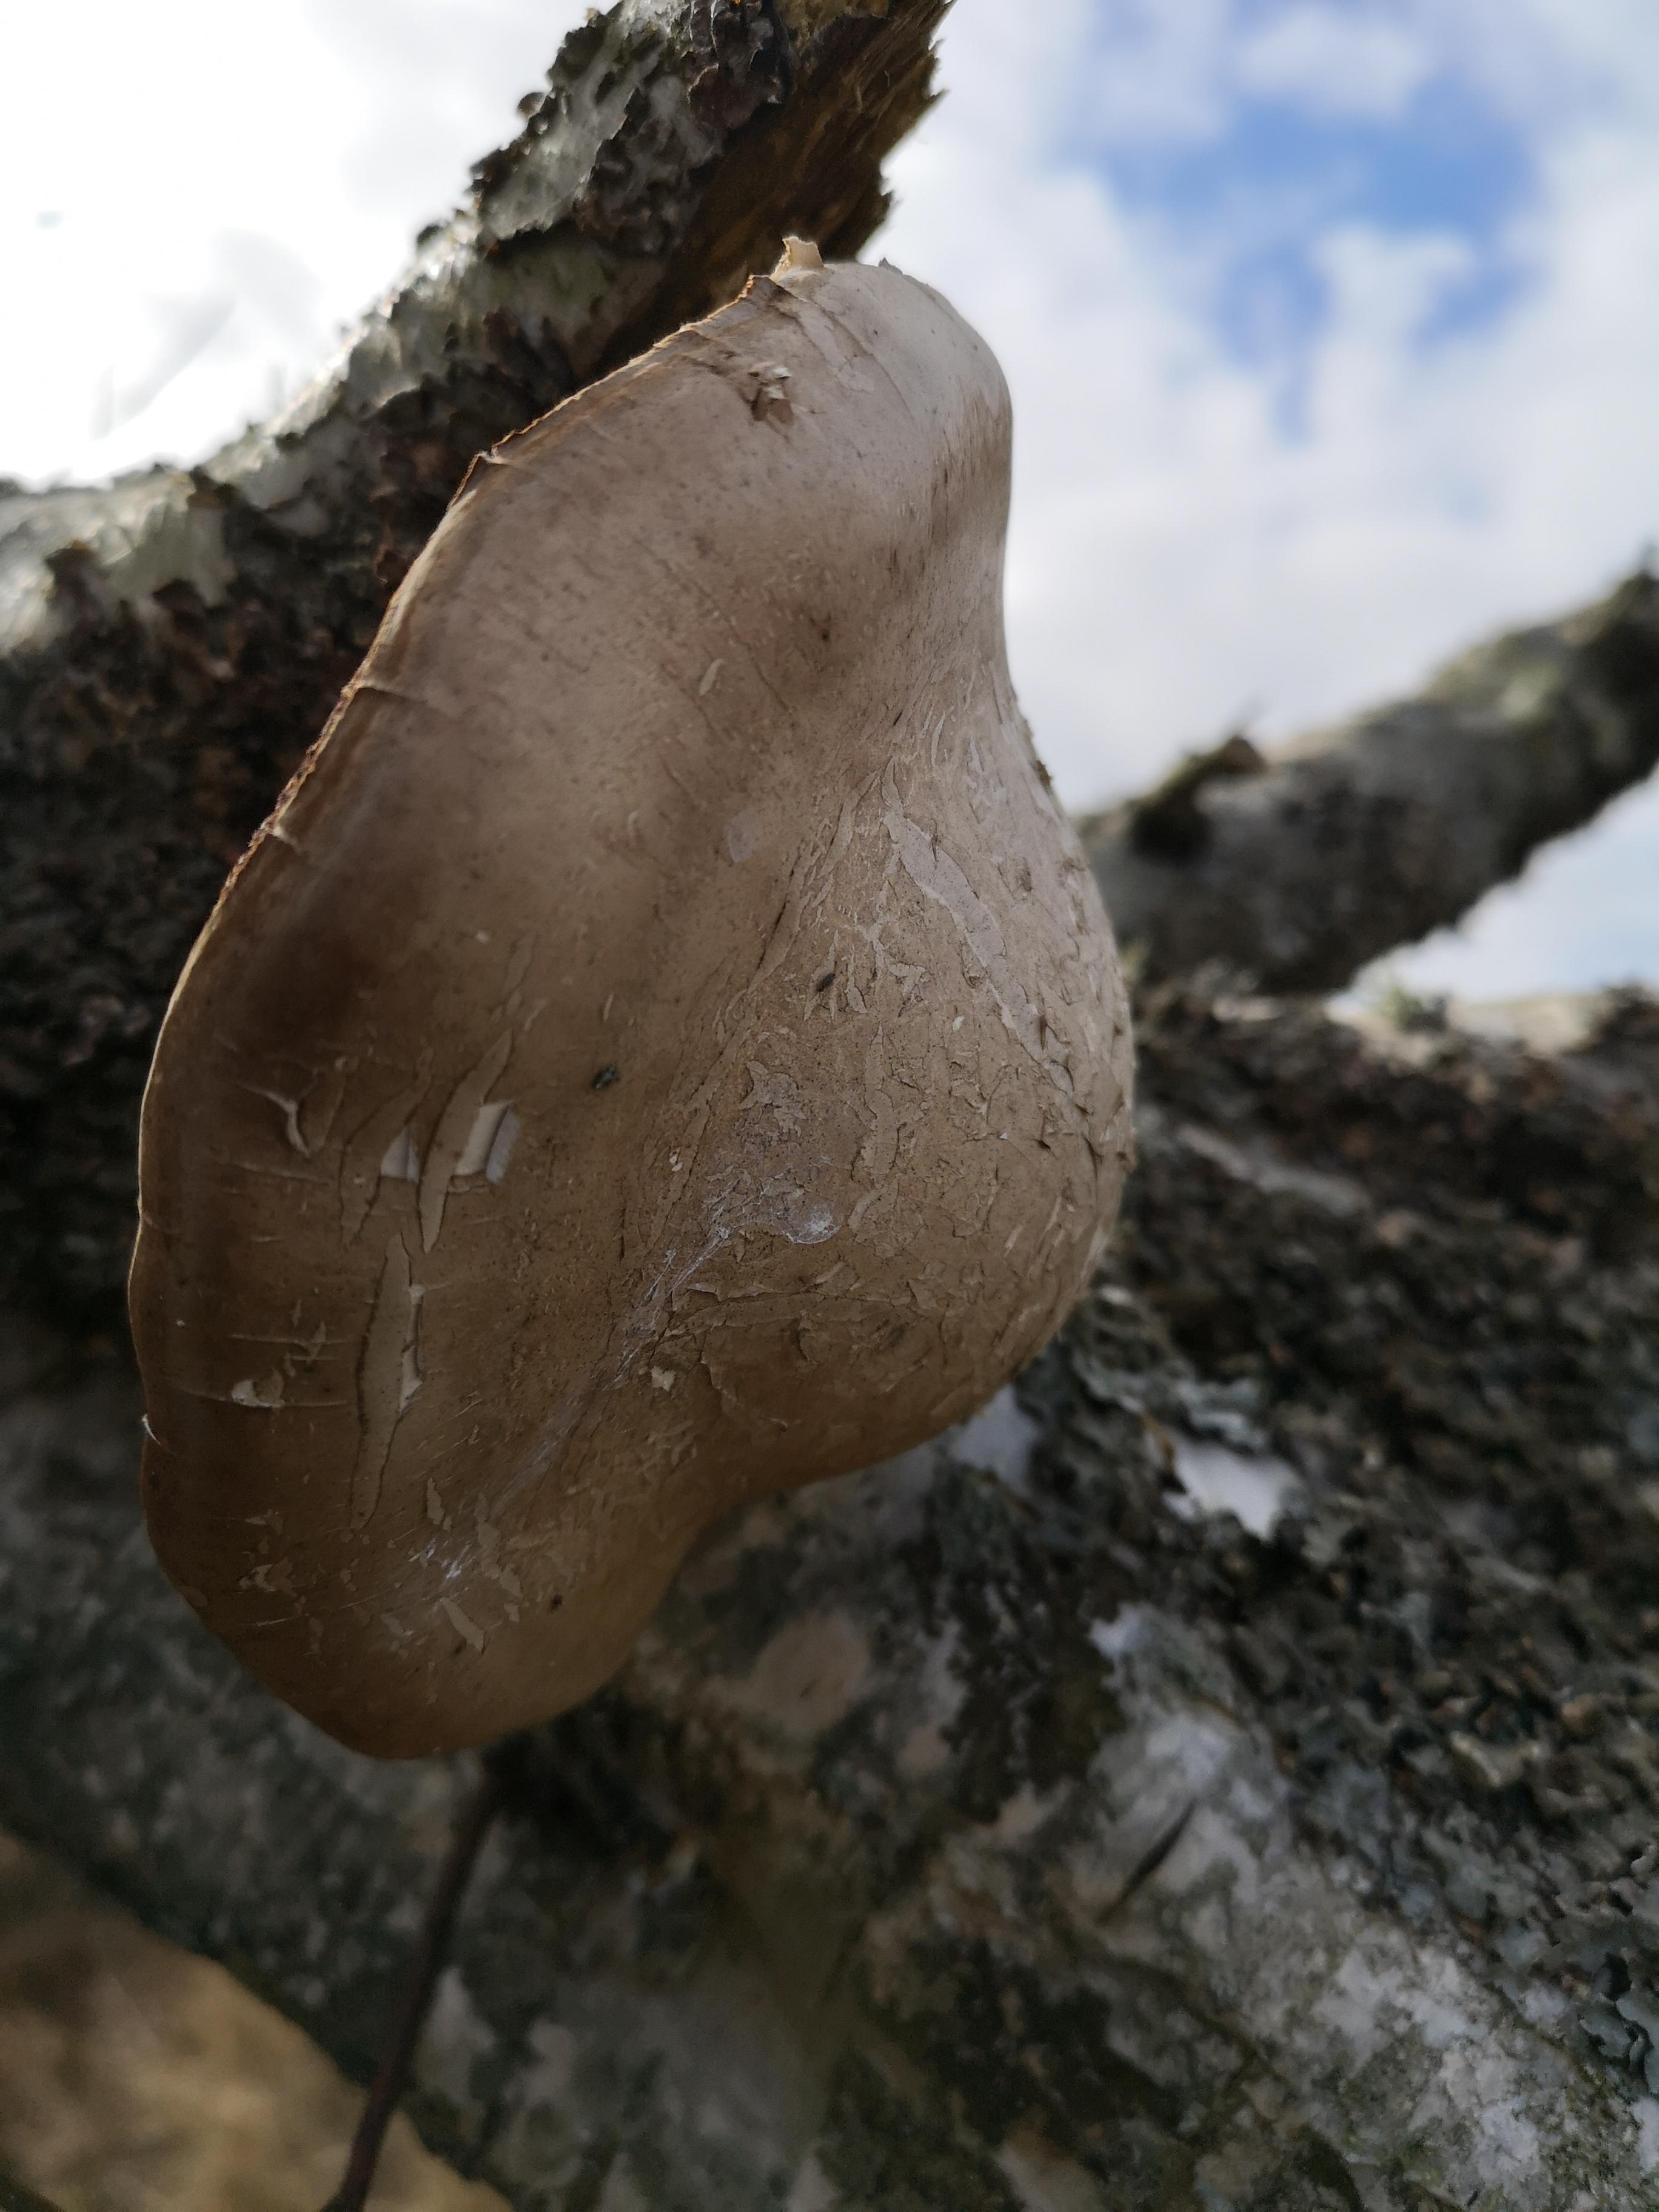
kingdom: Fungi
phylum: Basidiomycota
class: Agaricomycetes
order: Polyporales
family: Fomitopsidaceae
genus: Fomitopsis
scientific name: Fomitopsis betulina
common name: birkeporesvamp
